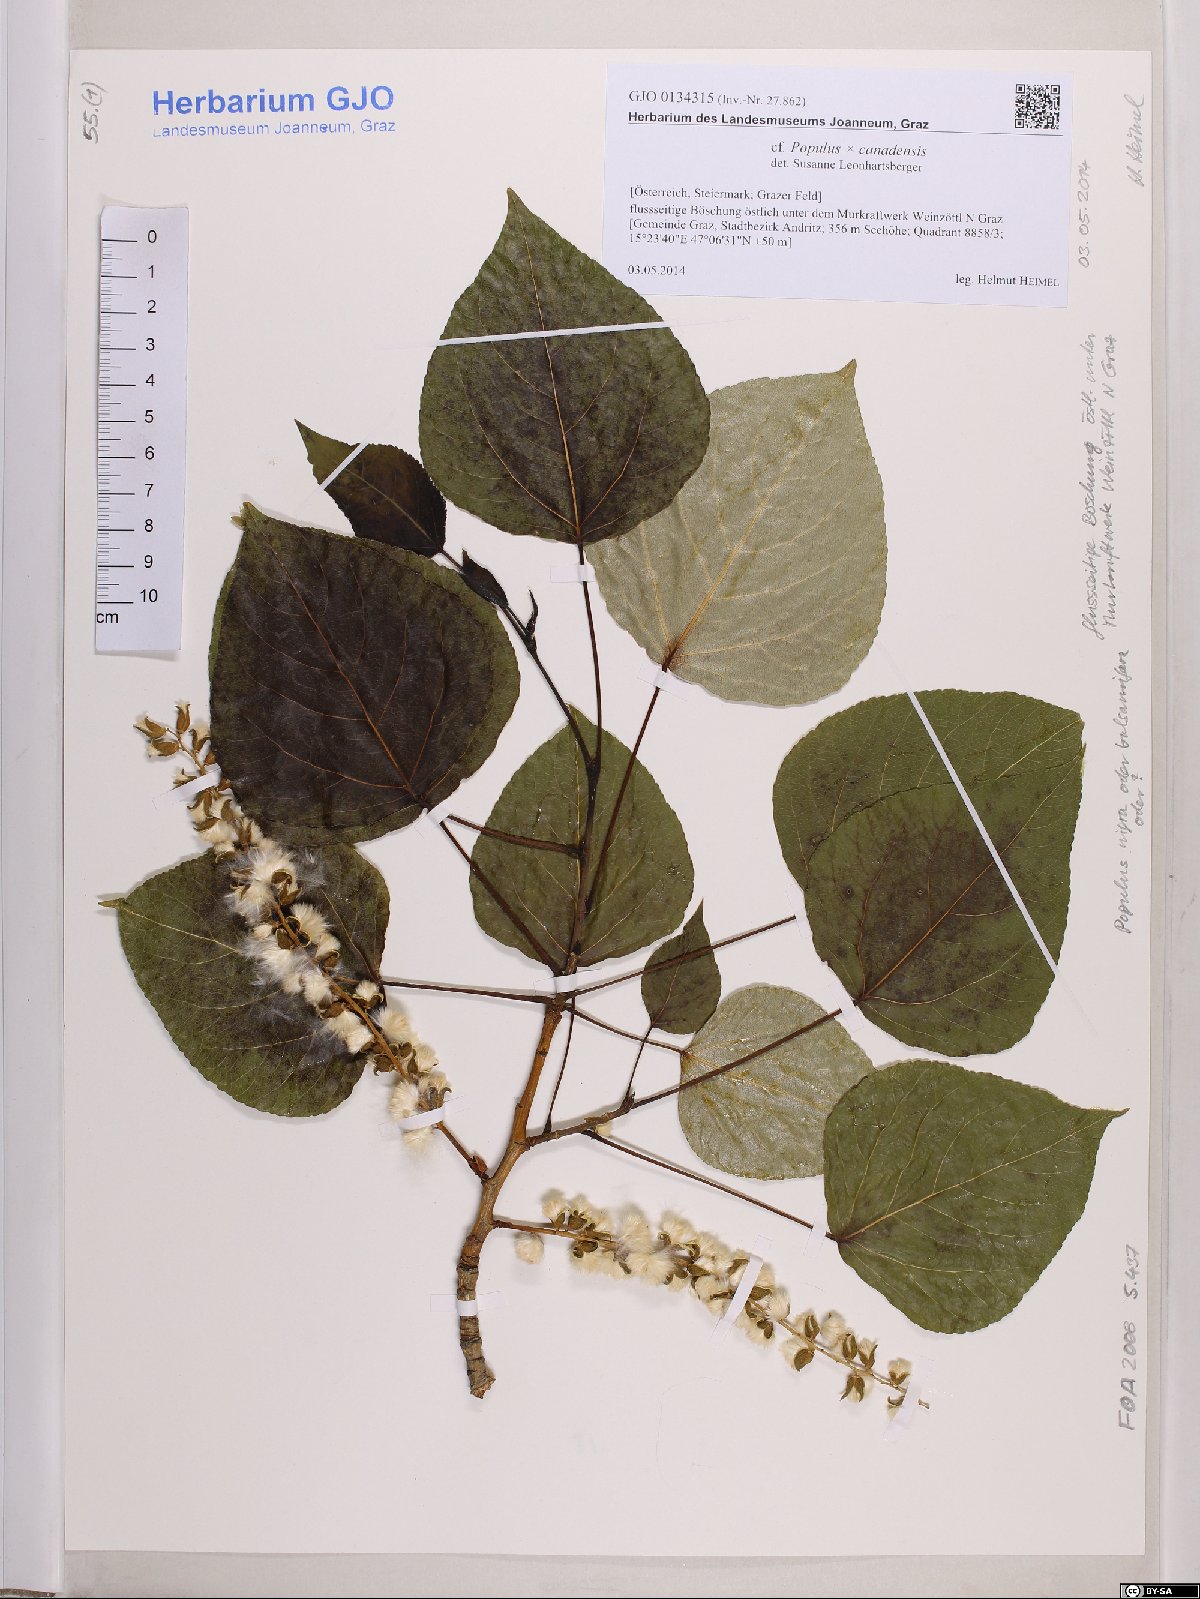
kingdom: Plantae
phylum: Tracheophyta
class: Magnoliopsida
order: Malpighiales
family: Salicaceae
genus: Populus
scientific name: Populus canadensis
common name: Carolina poplar
